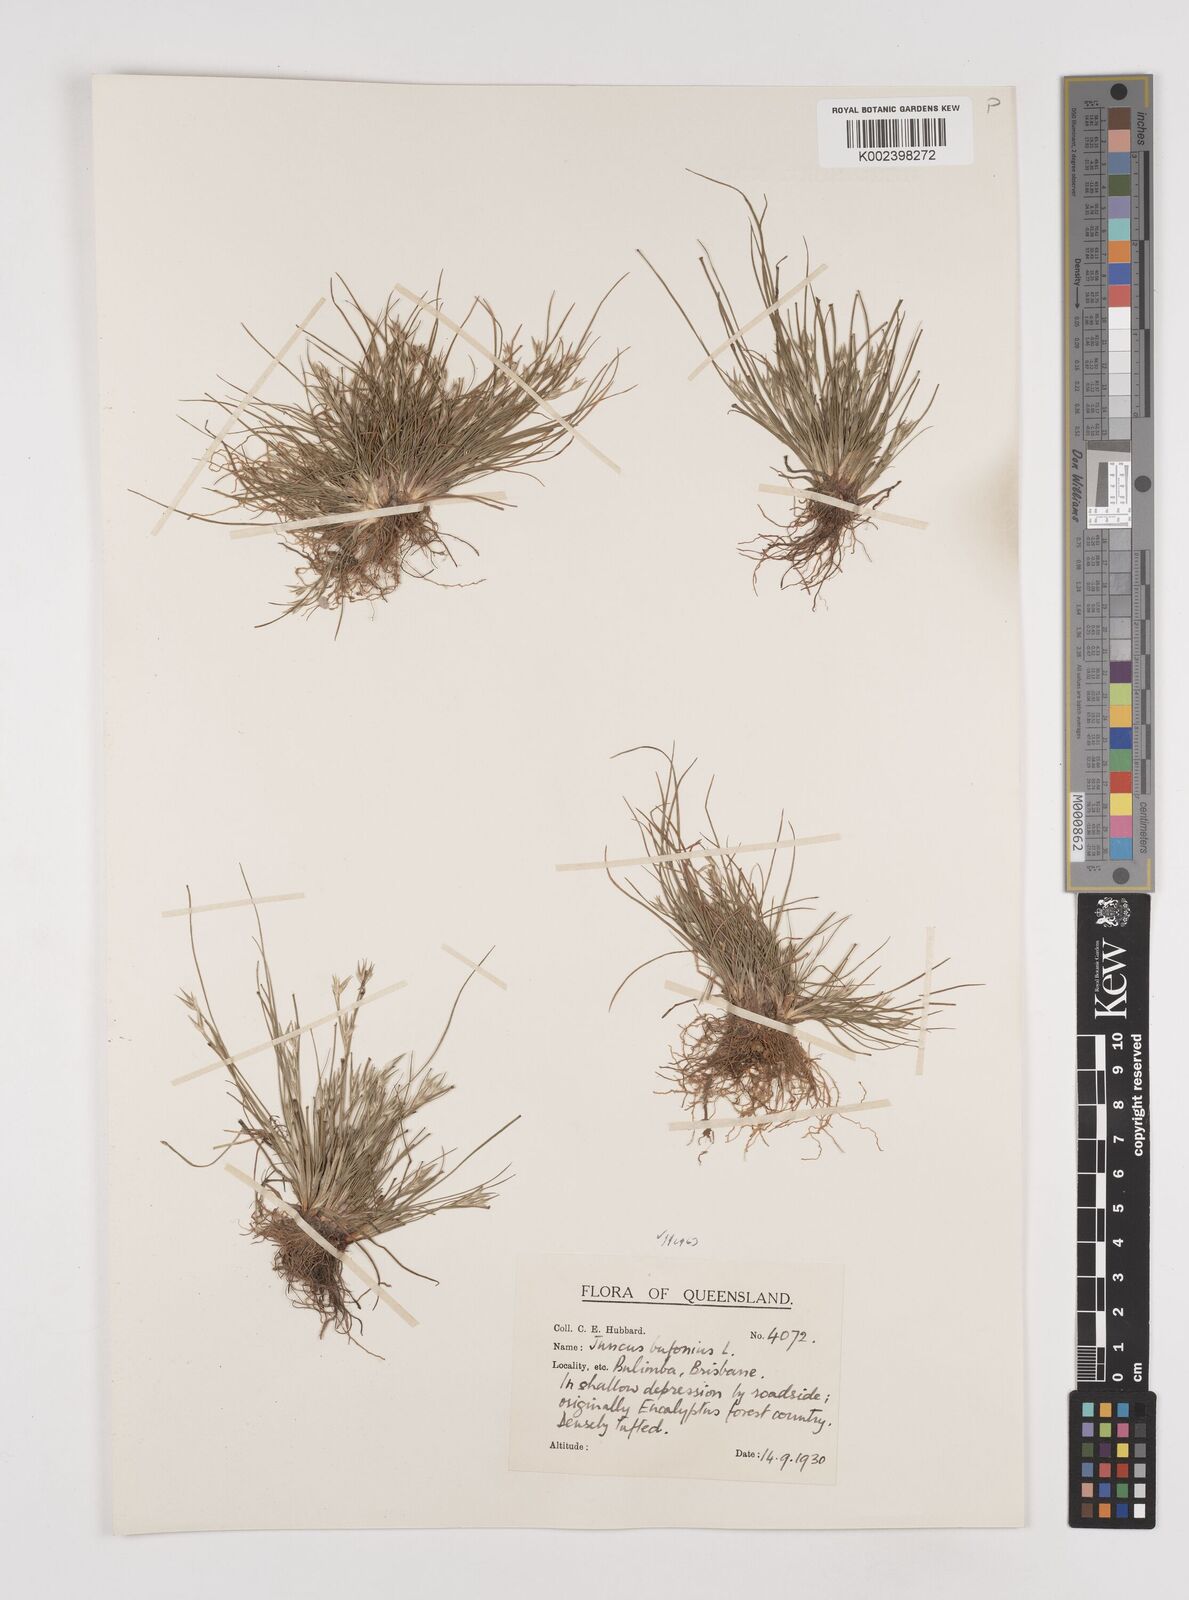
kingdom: Plantae
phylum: Tracheophyta
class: Liliopsida
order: Poales
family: Juncaceae
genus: Juncus
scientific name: Juncus bufonius
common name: Toad rush
